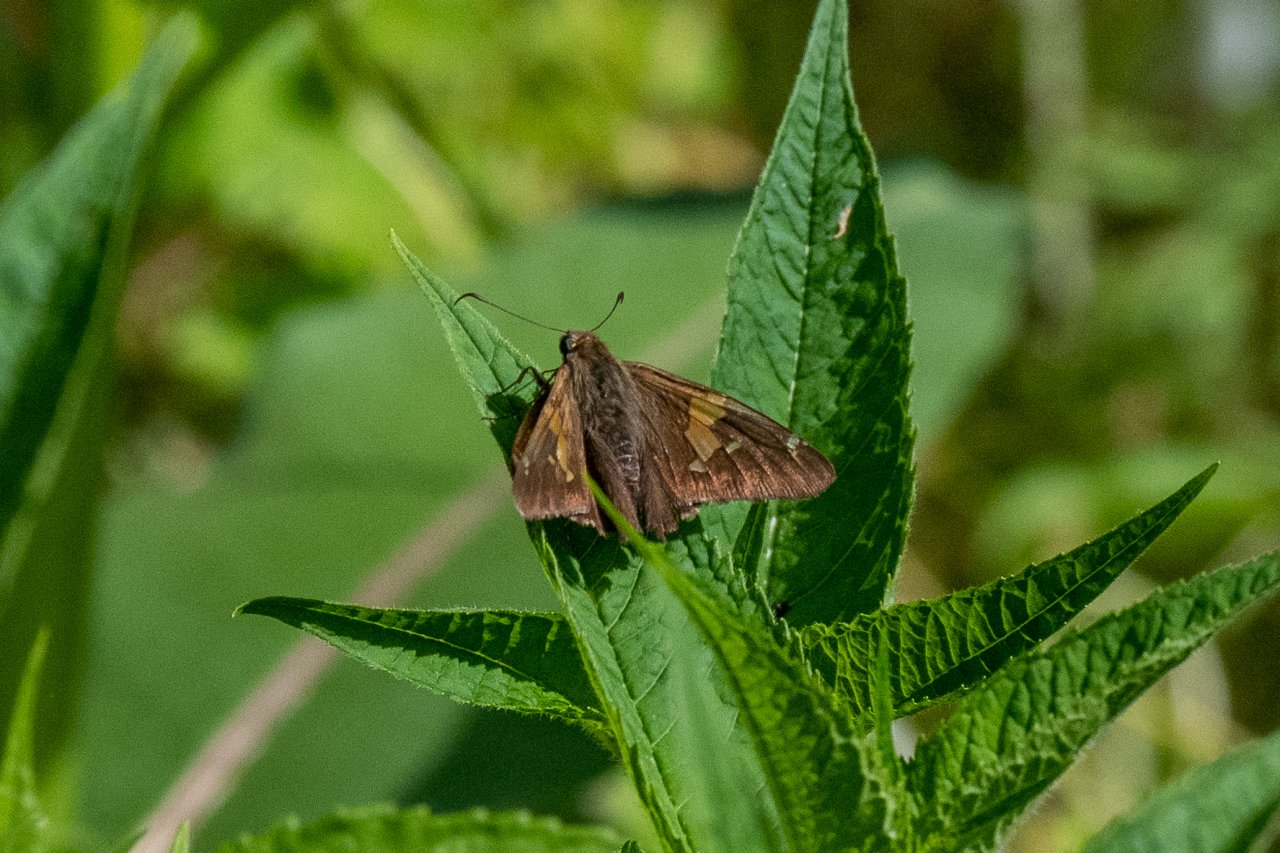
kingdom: Animalia
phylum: Arthropoda
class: Insecta
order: Lepidoptera
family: Hesperiidae
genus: Epargyreus
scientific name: Epargyreus clarus
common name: Silver-spotted Skipper
